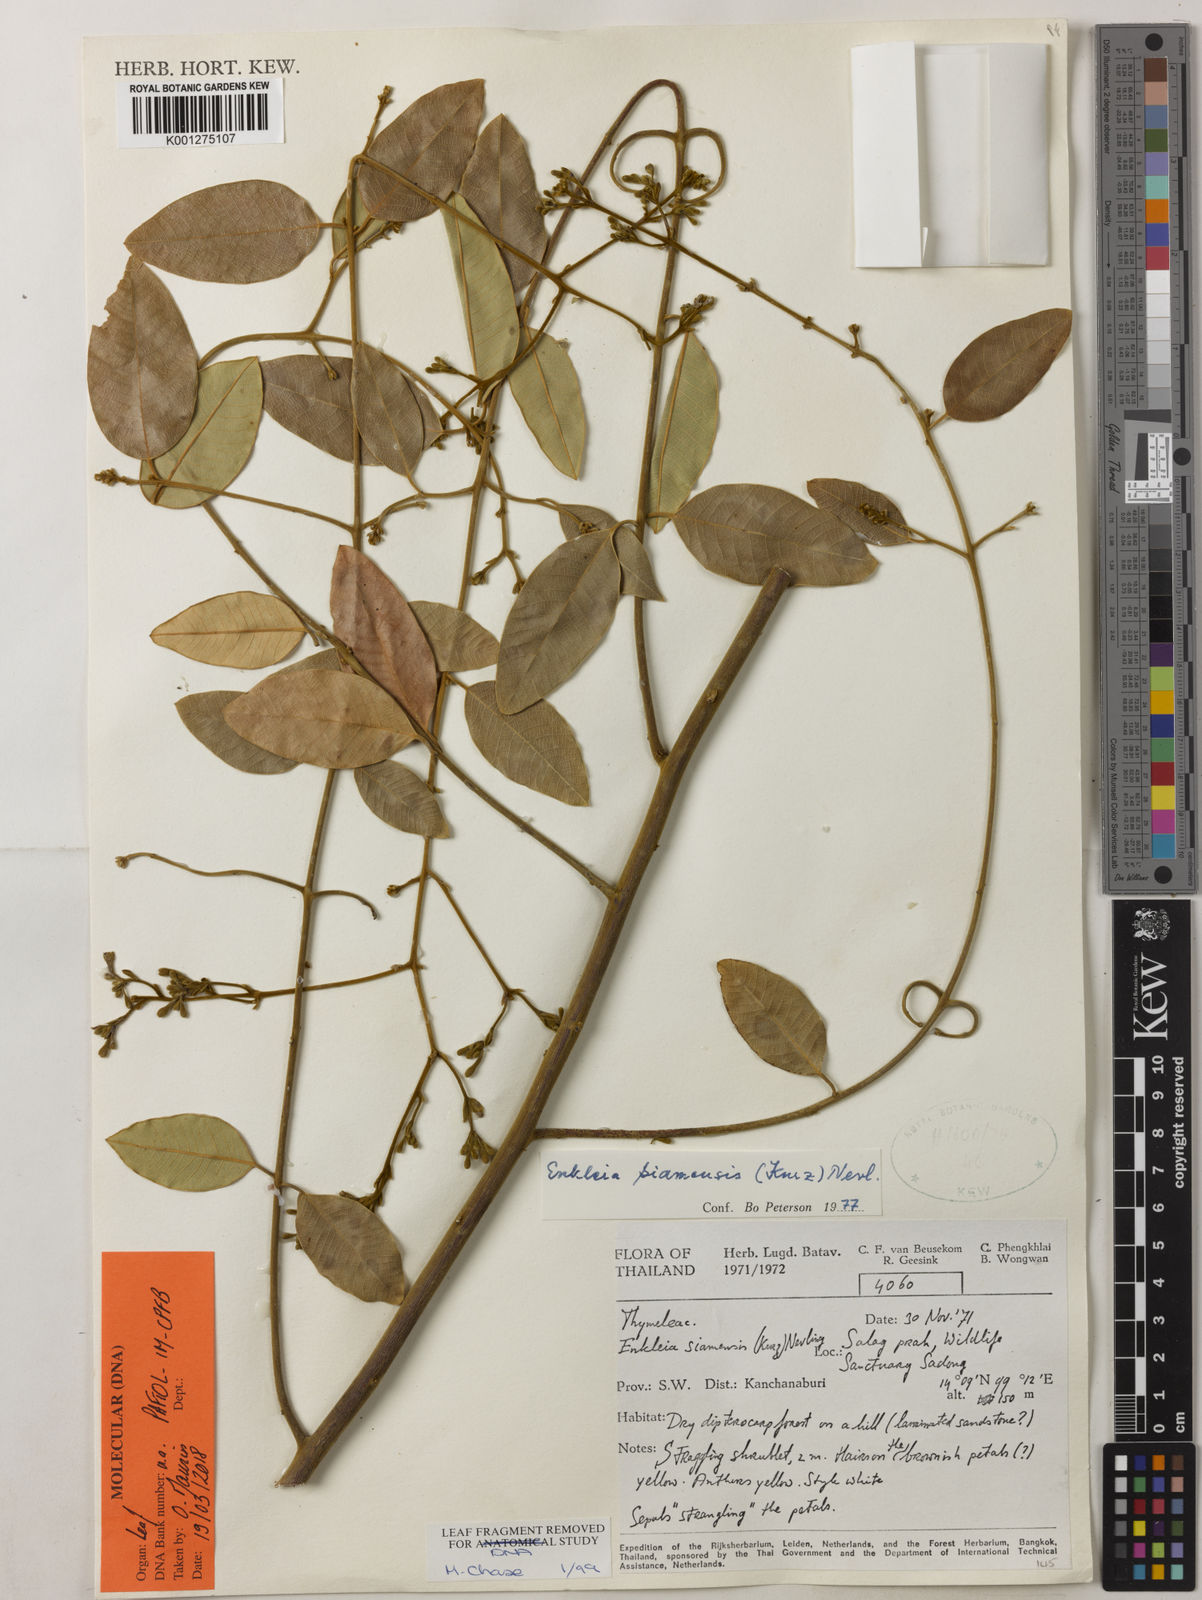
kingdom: Plantae
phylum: Tracheophyta
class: Magnoliopsida
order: Malvales
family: Thymelaeaceae
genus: Enkleia
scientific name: Enkleia malaccensis
